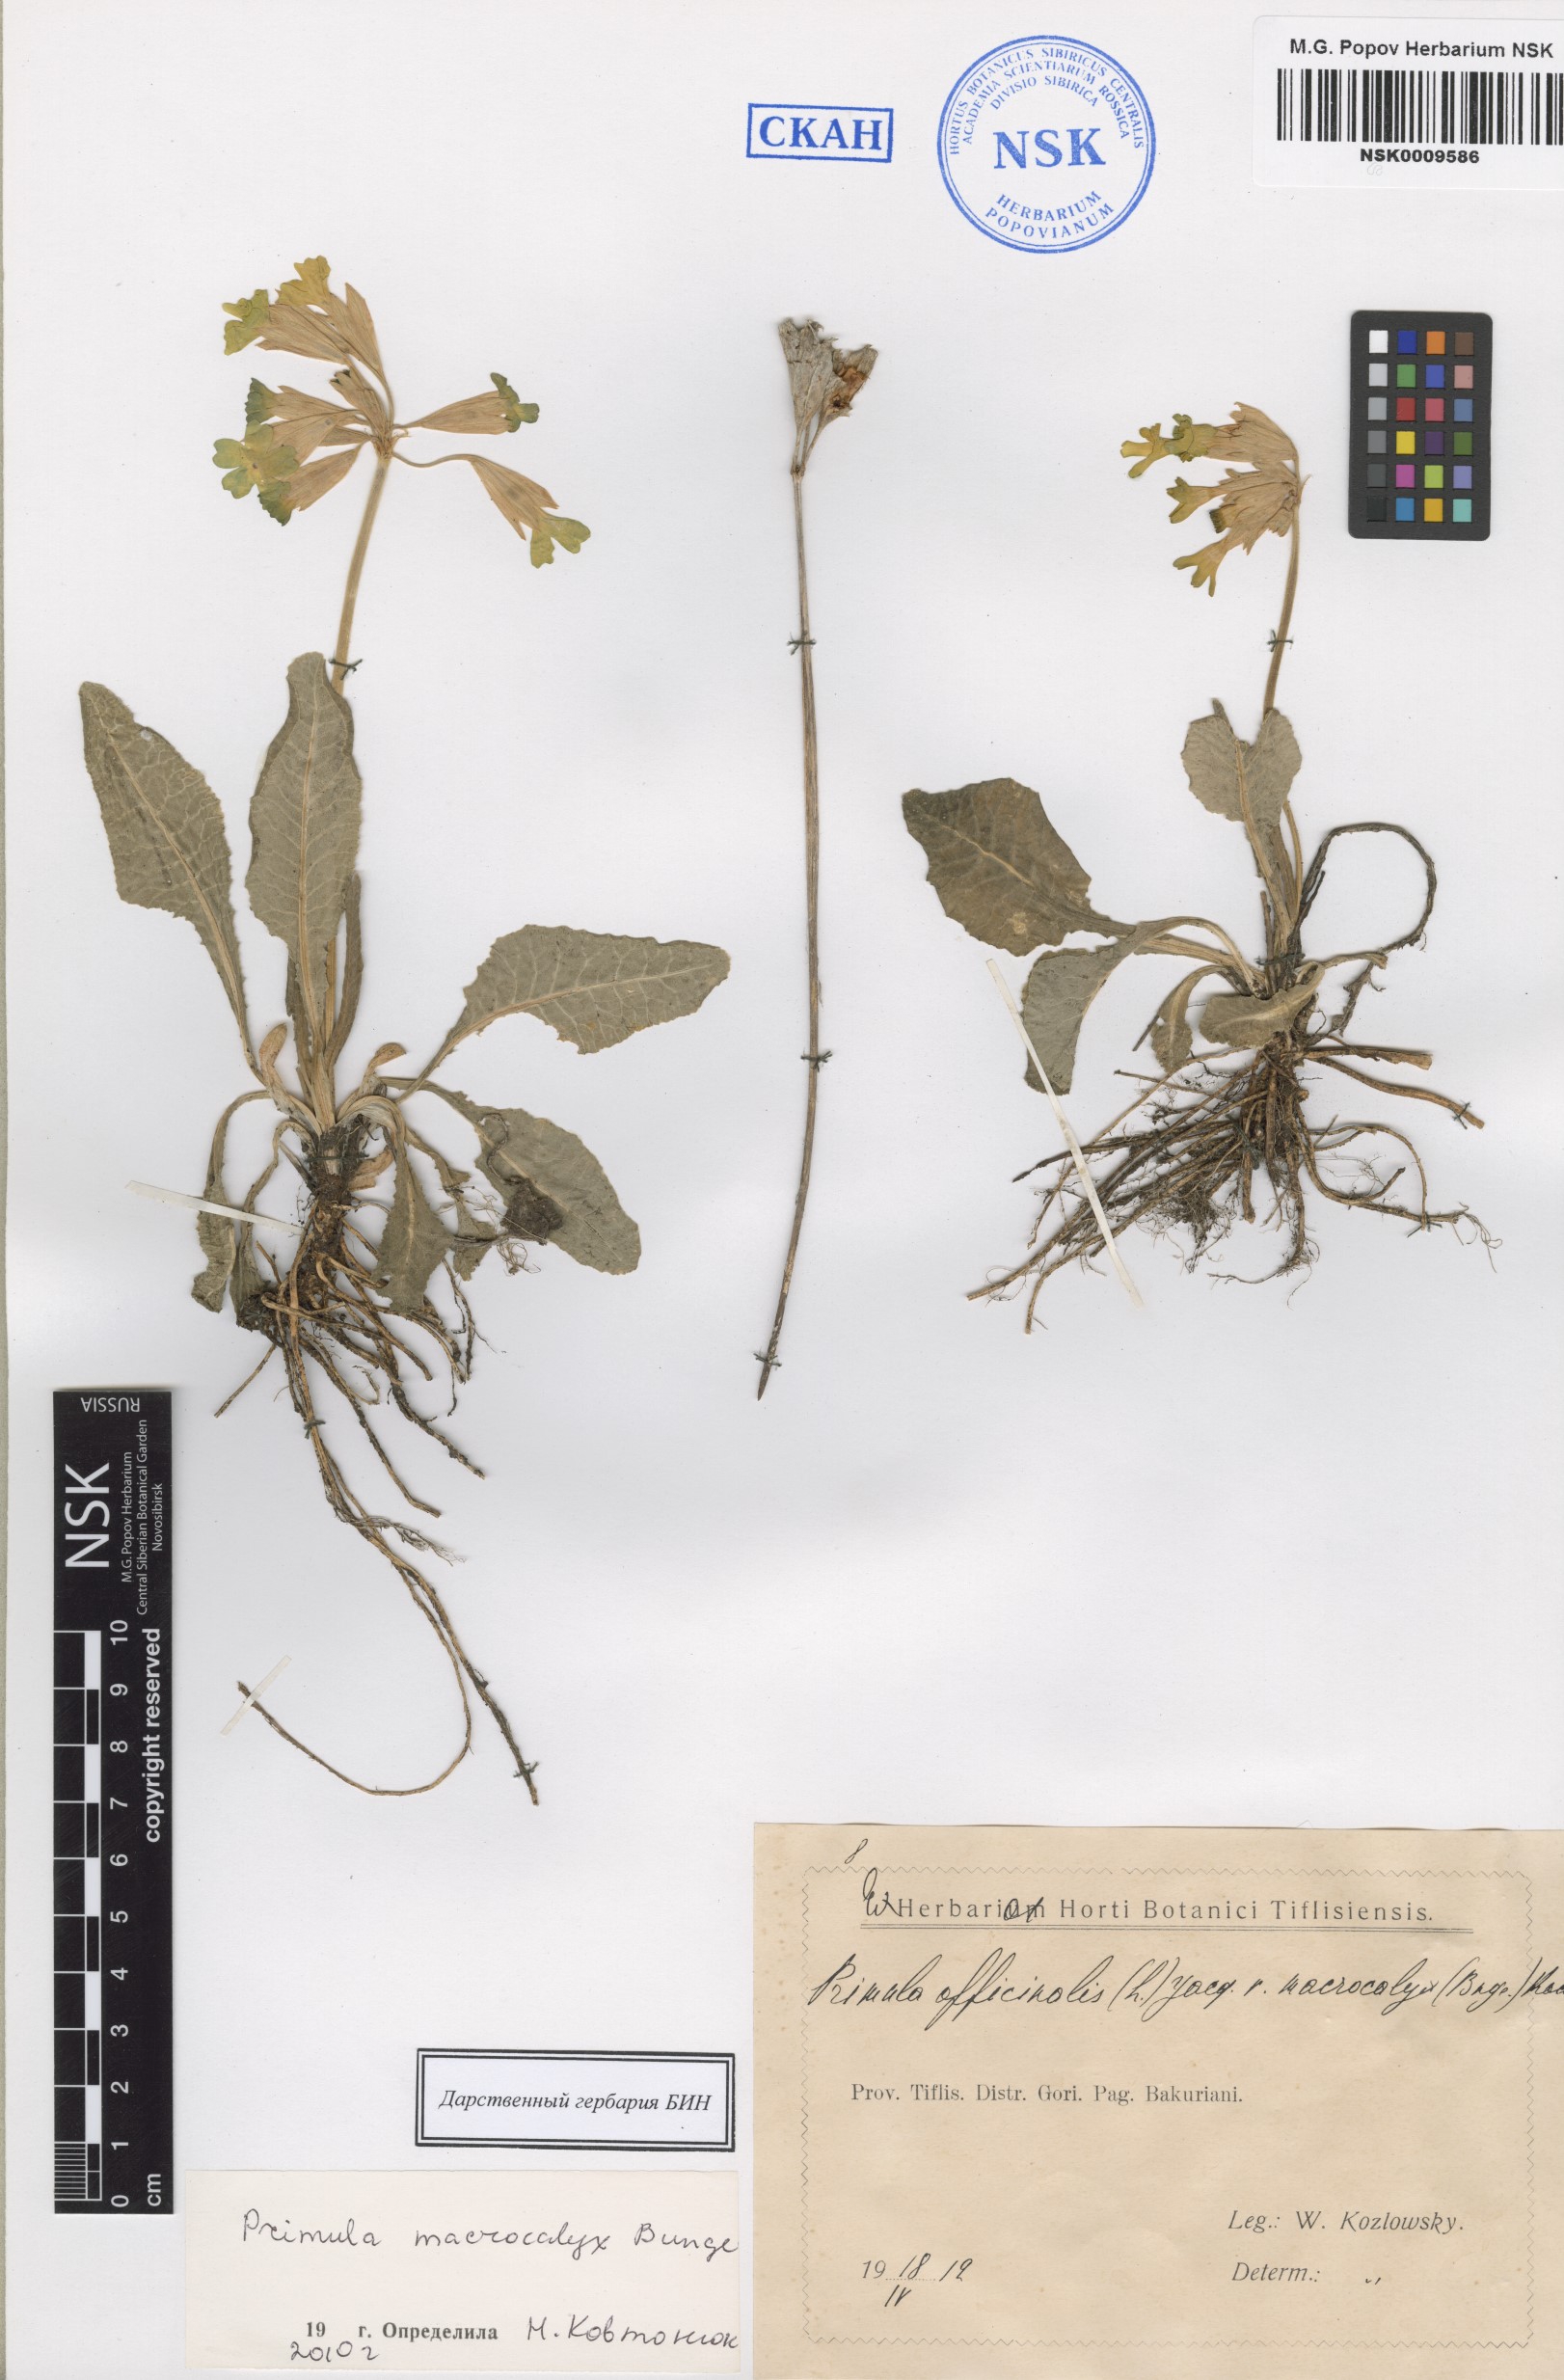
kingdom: Plantae
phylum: Tracheophyta
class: Magnoliopsida
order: Ericales
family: Primulaceae
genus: Primula
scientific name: Primula veris
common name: Cowslip
